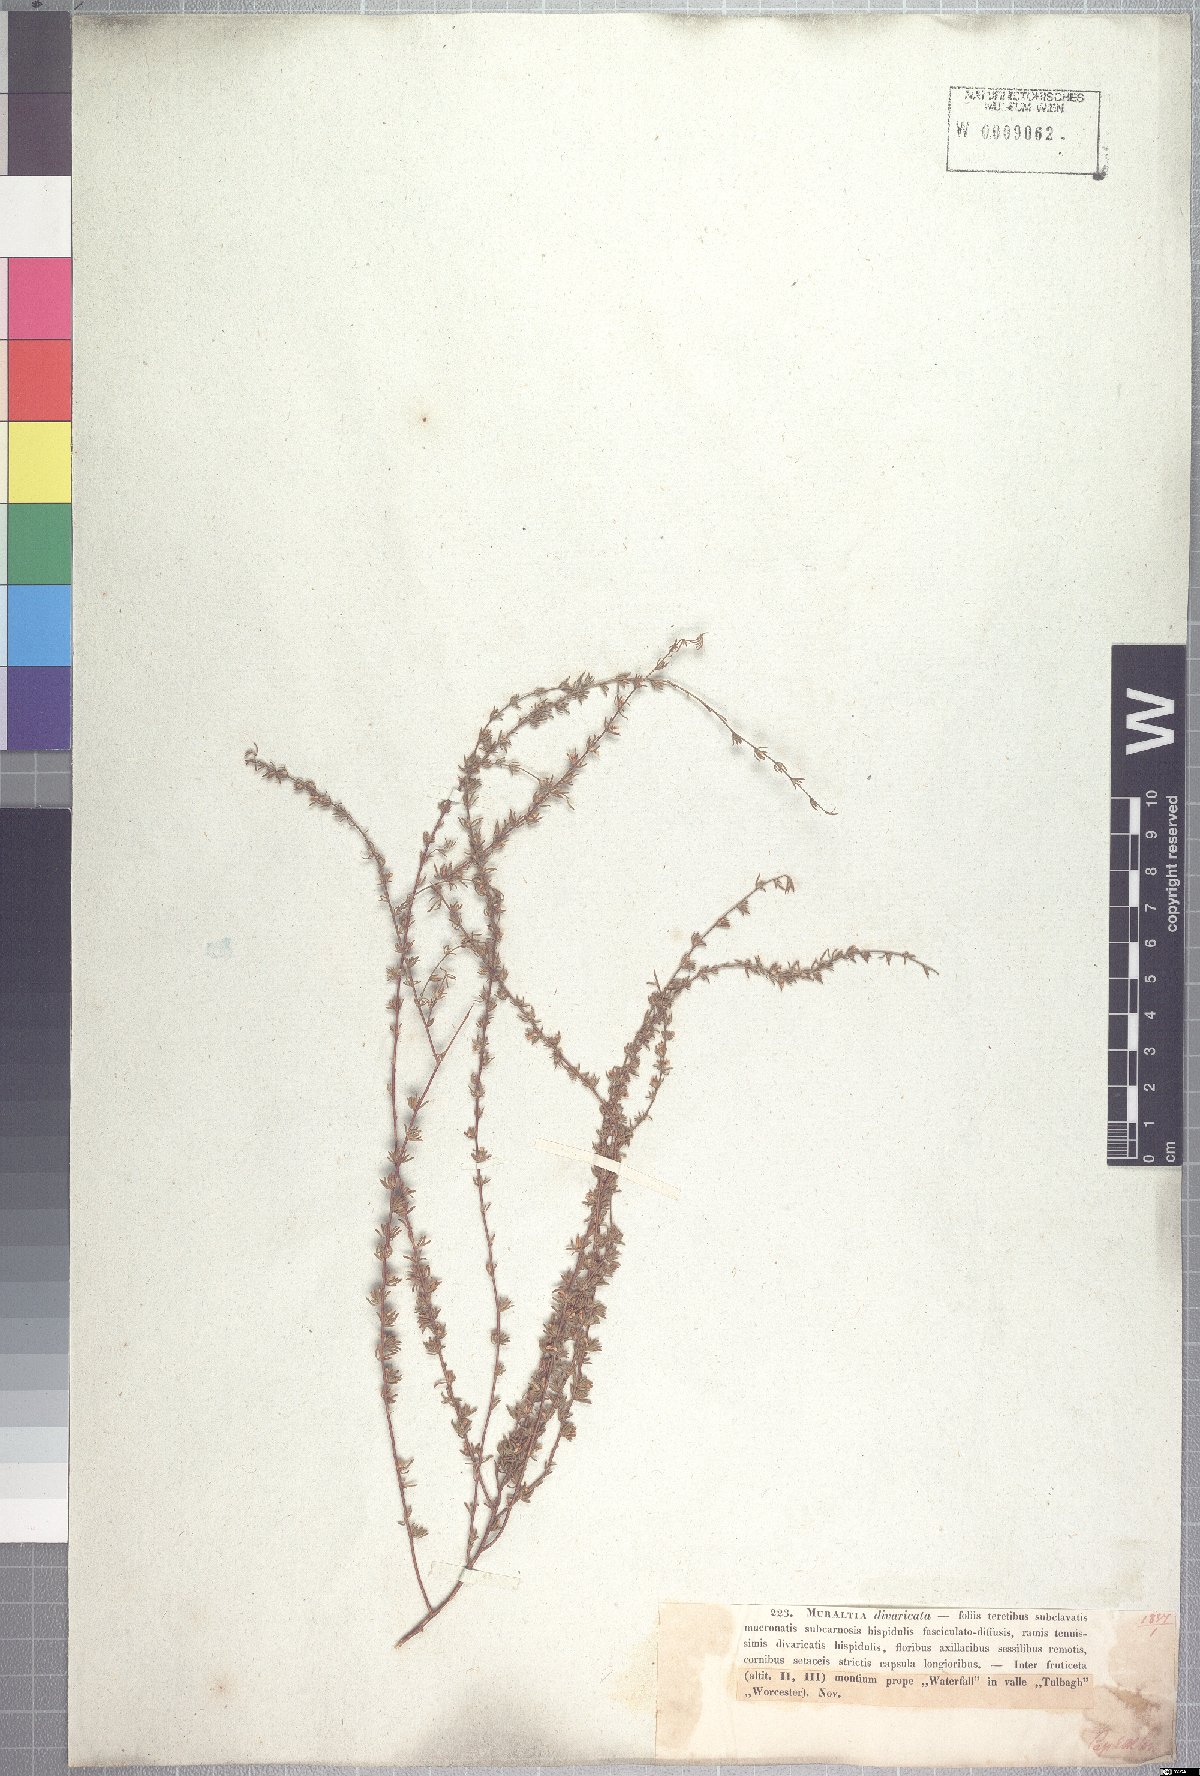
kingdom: Plantae
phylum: Tracheophyta
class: Magnoliopsida
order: Fabales
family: Polygalaceae
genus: Muraltia
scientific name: Muraltia divaricata
